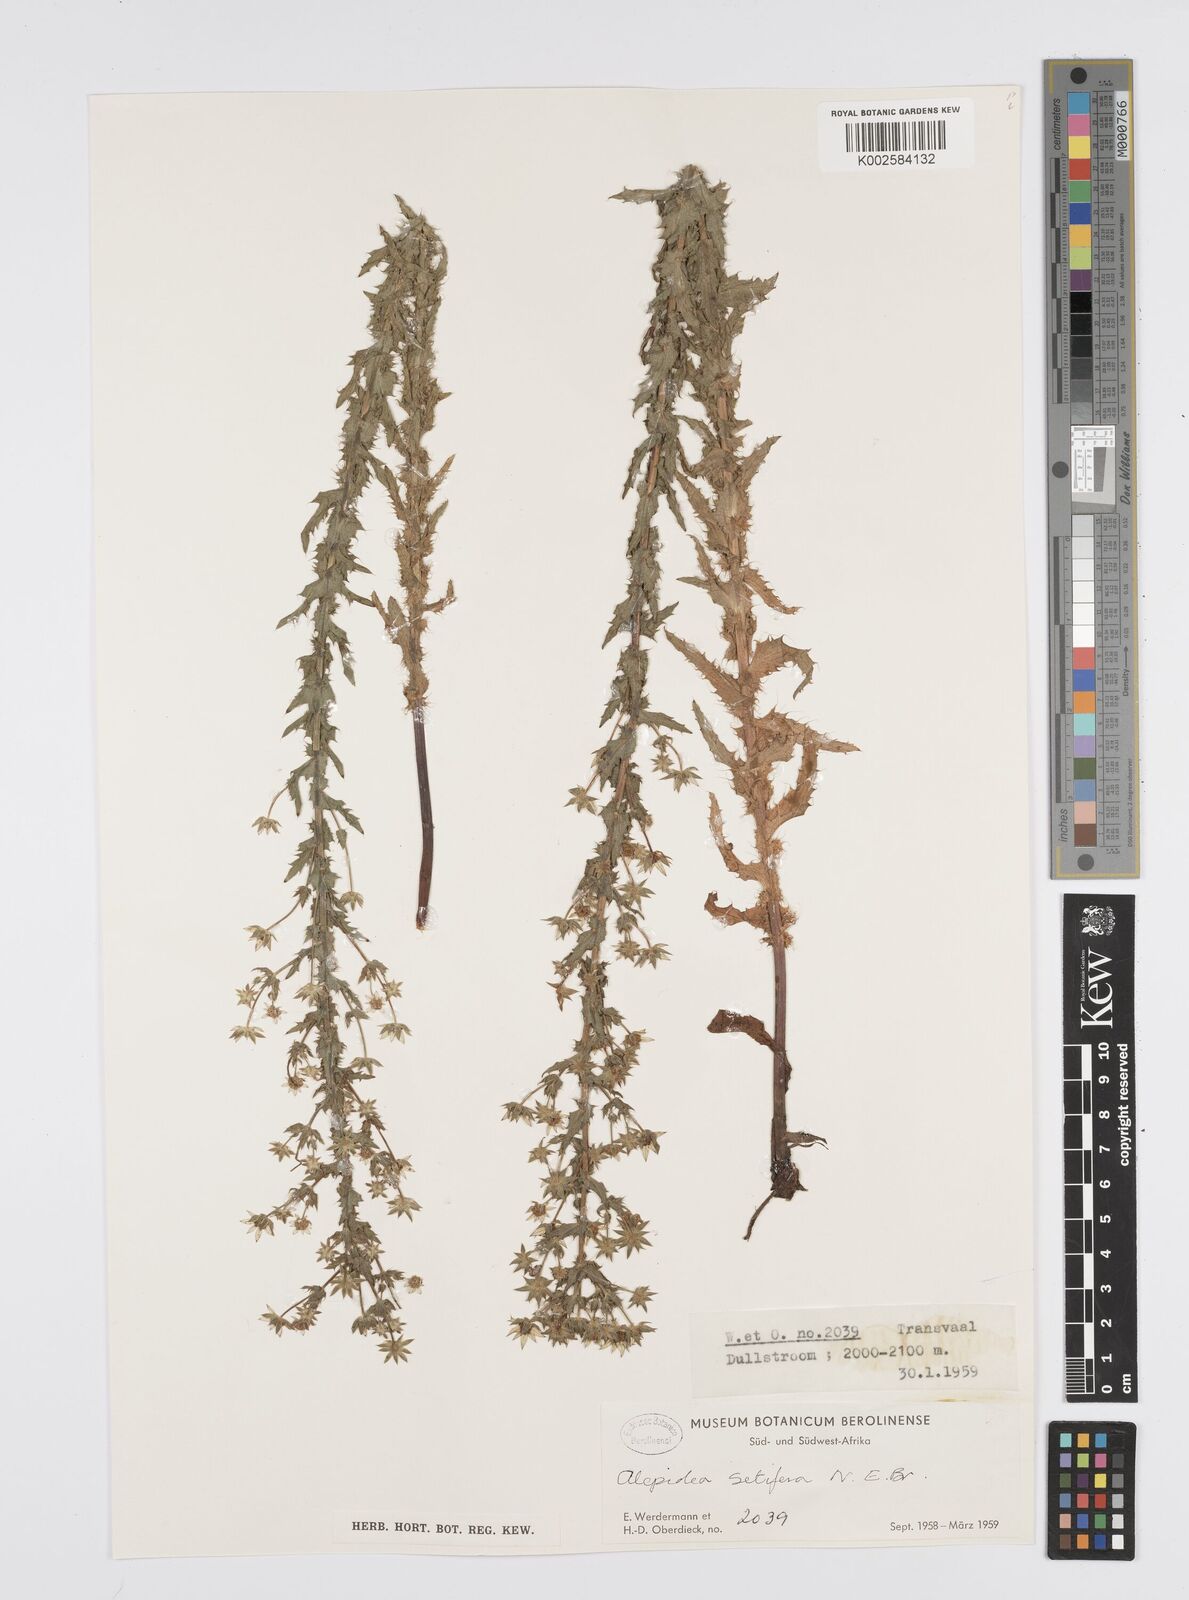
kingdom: Plantae
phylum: Tracheophyta
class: Magnoliopsida
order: Apiales
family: Apiaceae
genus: Alepidea
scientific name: Alepidea setifera
